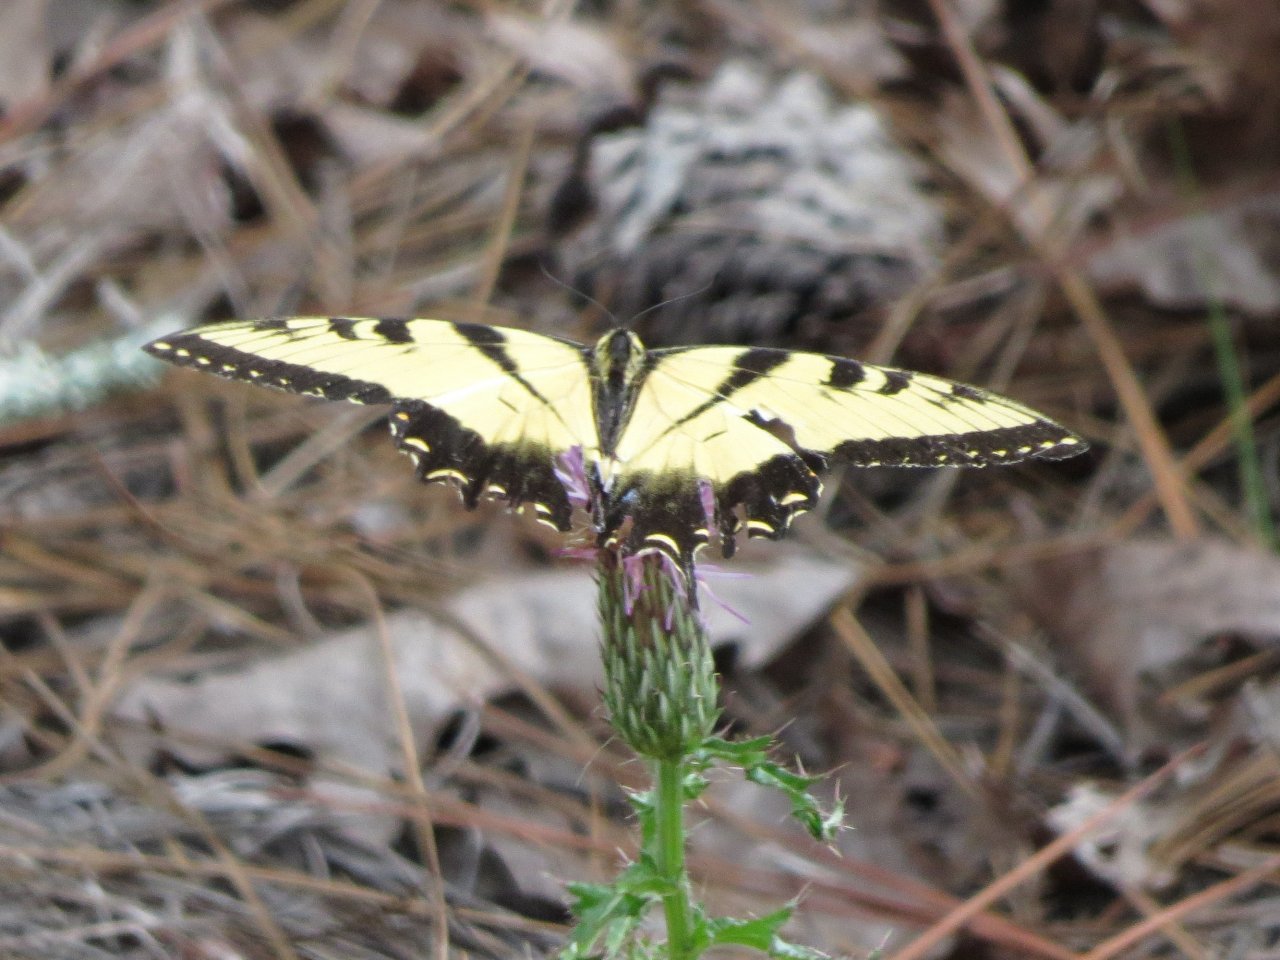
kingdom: Animalia
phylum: Arthropoda
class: Insecta
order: Lepidoptera
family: Papilionidae
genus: Pterourus
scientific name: Pterourus glaucus
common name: Eastern Tiger Swallowtail
